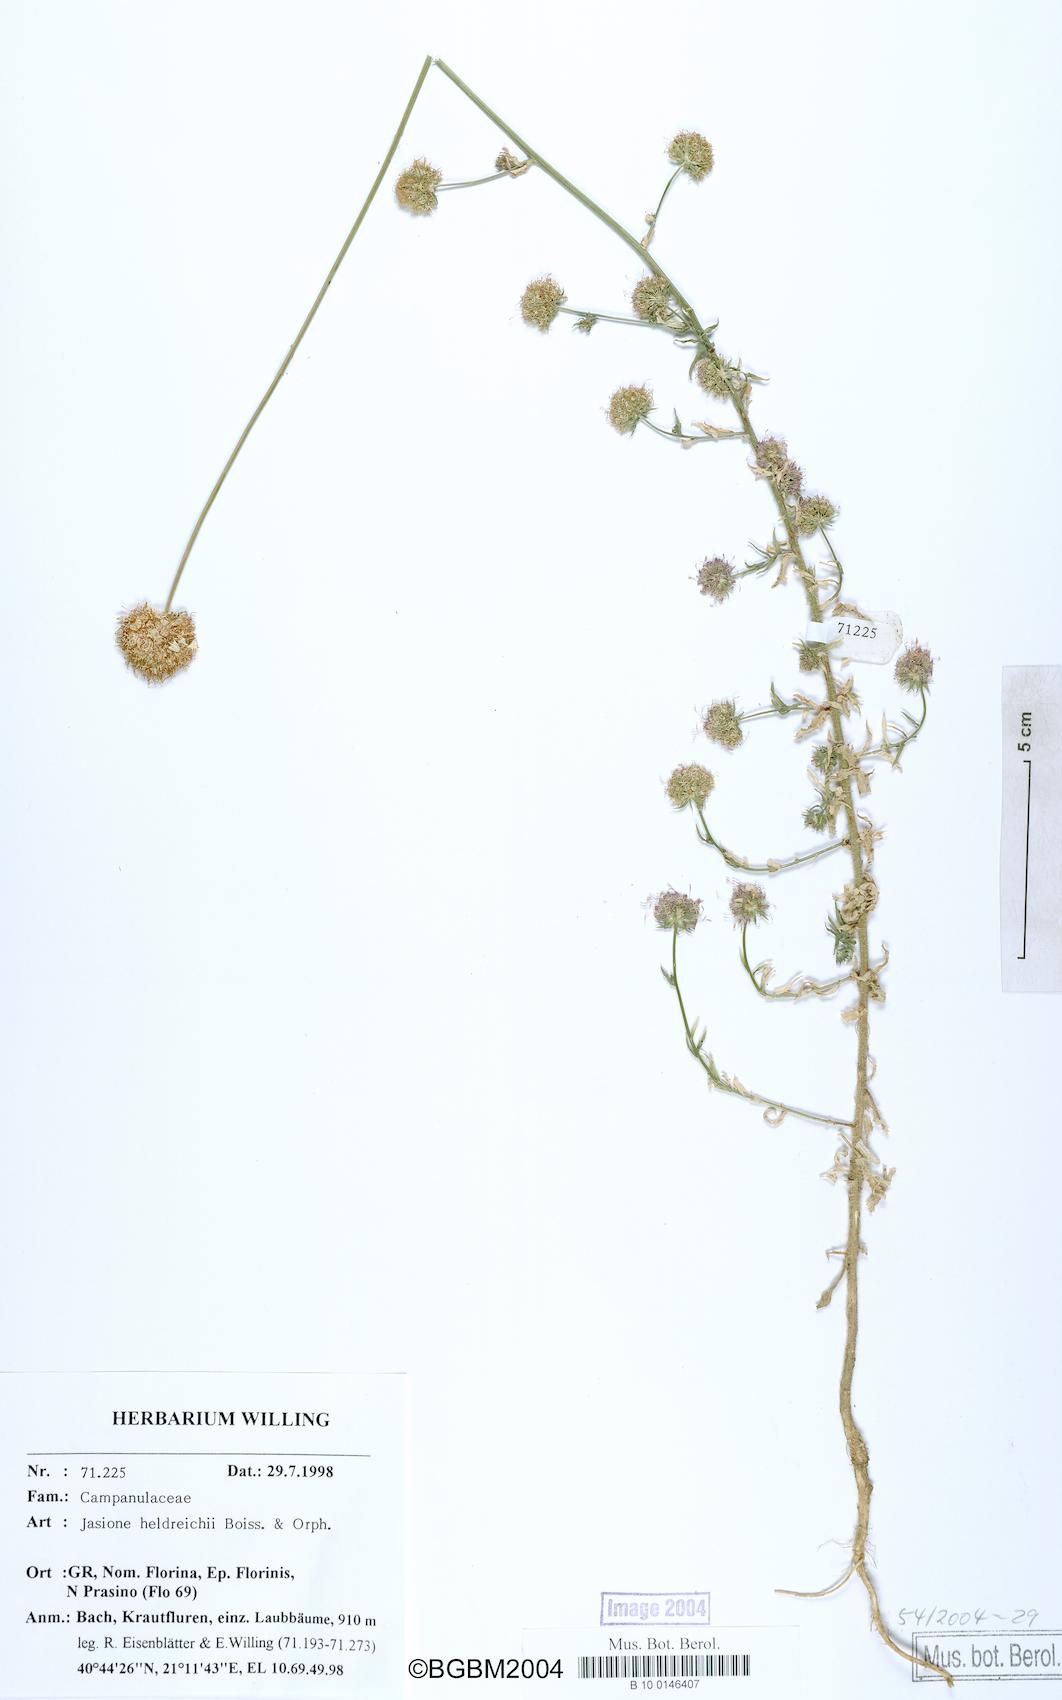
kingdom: Plantae
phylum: Tracheophyta
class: Magnoliopsida
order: Asterales
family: Campanulaceae
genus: Jasione
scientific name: Jasione heldreichii
